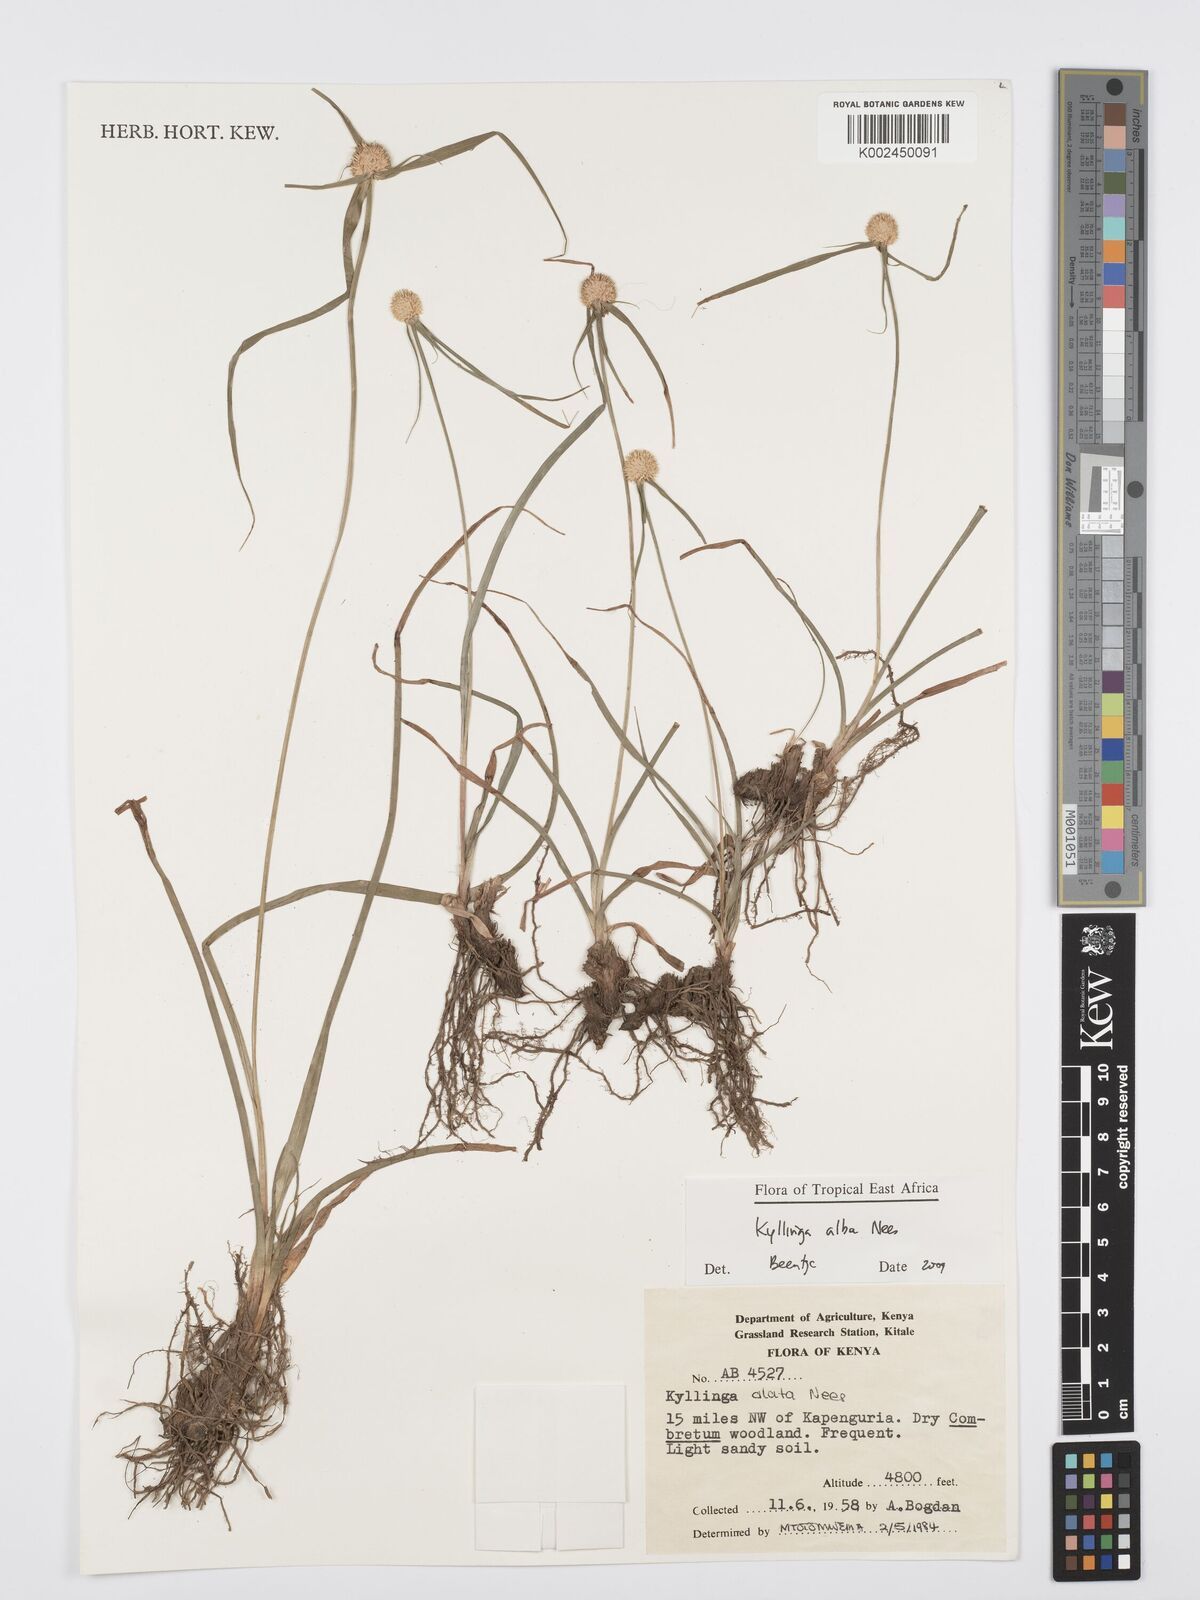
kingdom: Plantae
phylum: Tracheophyta
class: Liliopsida
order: Poales
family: Cyperaceae
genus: Cyperus
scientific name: Cyperus
